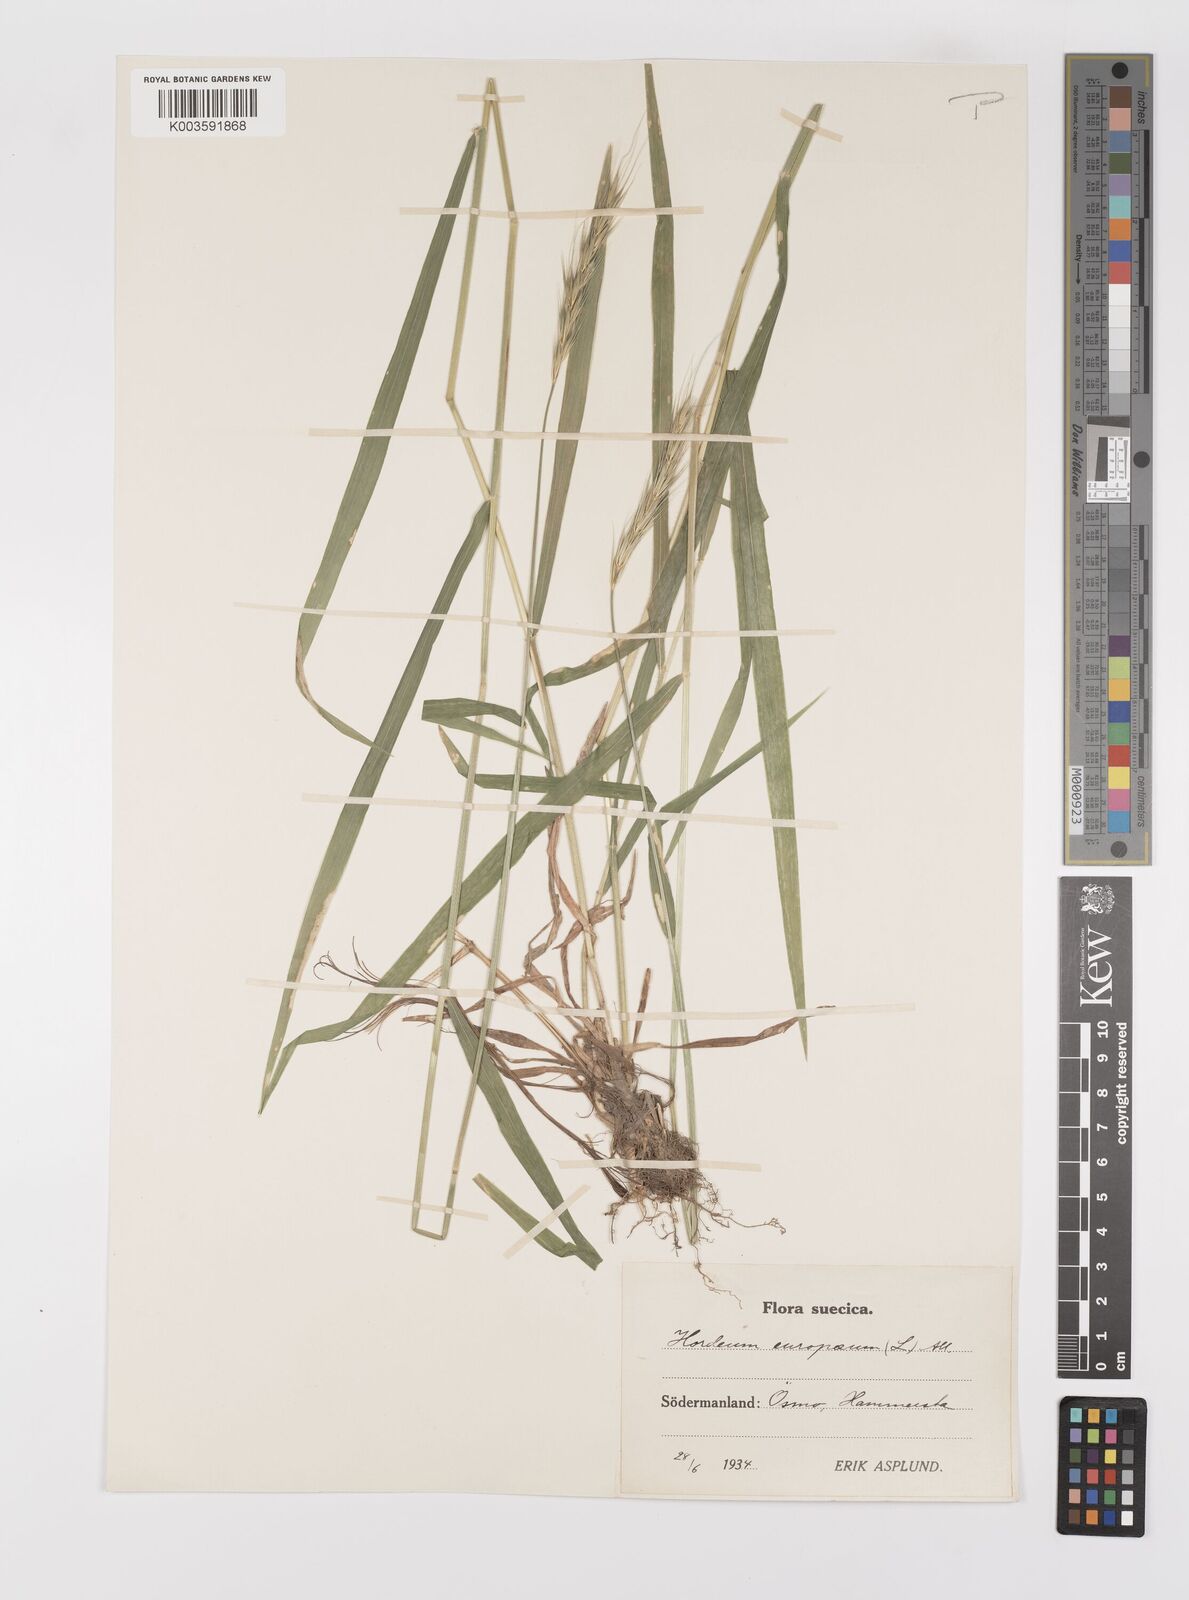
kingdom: Plantae
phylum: Tracheophyta
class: Liliopsida
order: Poales
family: Poaceae
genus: Hordelymus
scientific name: Hordelymus europaeus
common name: Wood-barley
